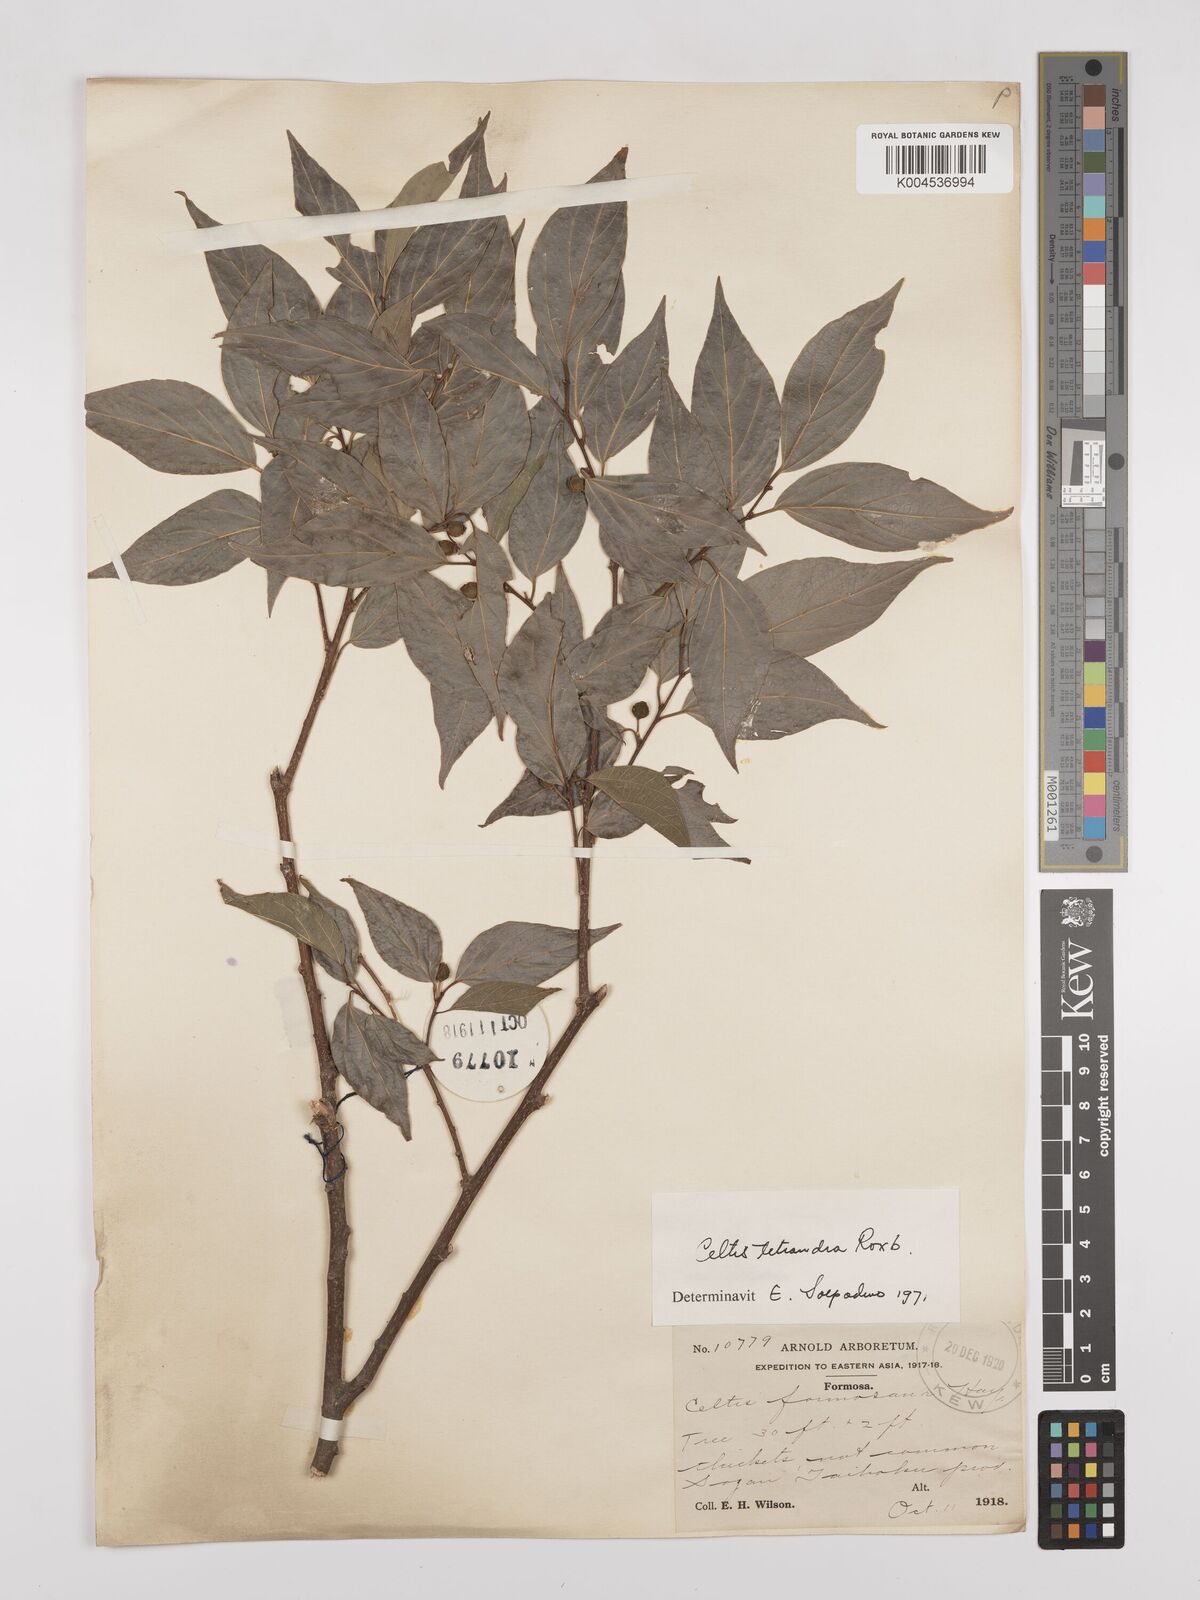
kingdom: Plantae
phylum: Tracheophyta
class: Magnoliopsida
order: Rosales
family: Cannabaceae
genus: Celtis
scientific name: Celtis tetrandra
